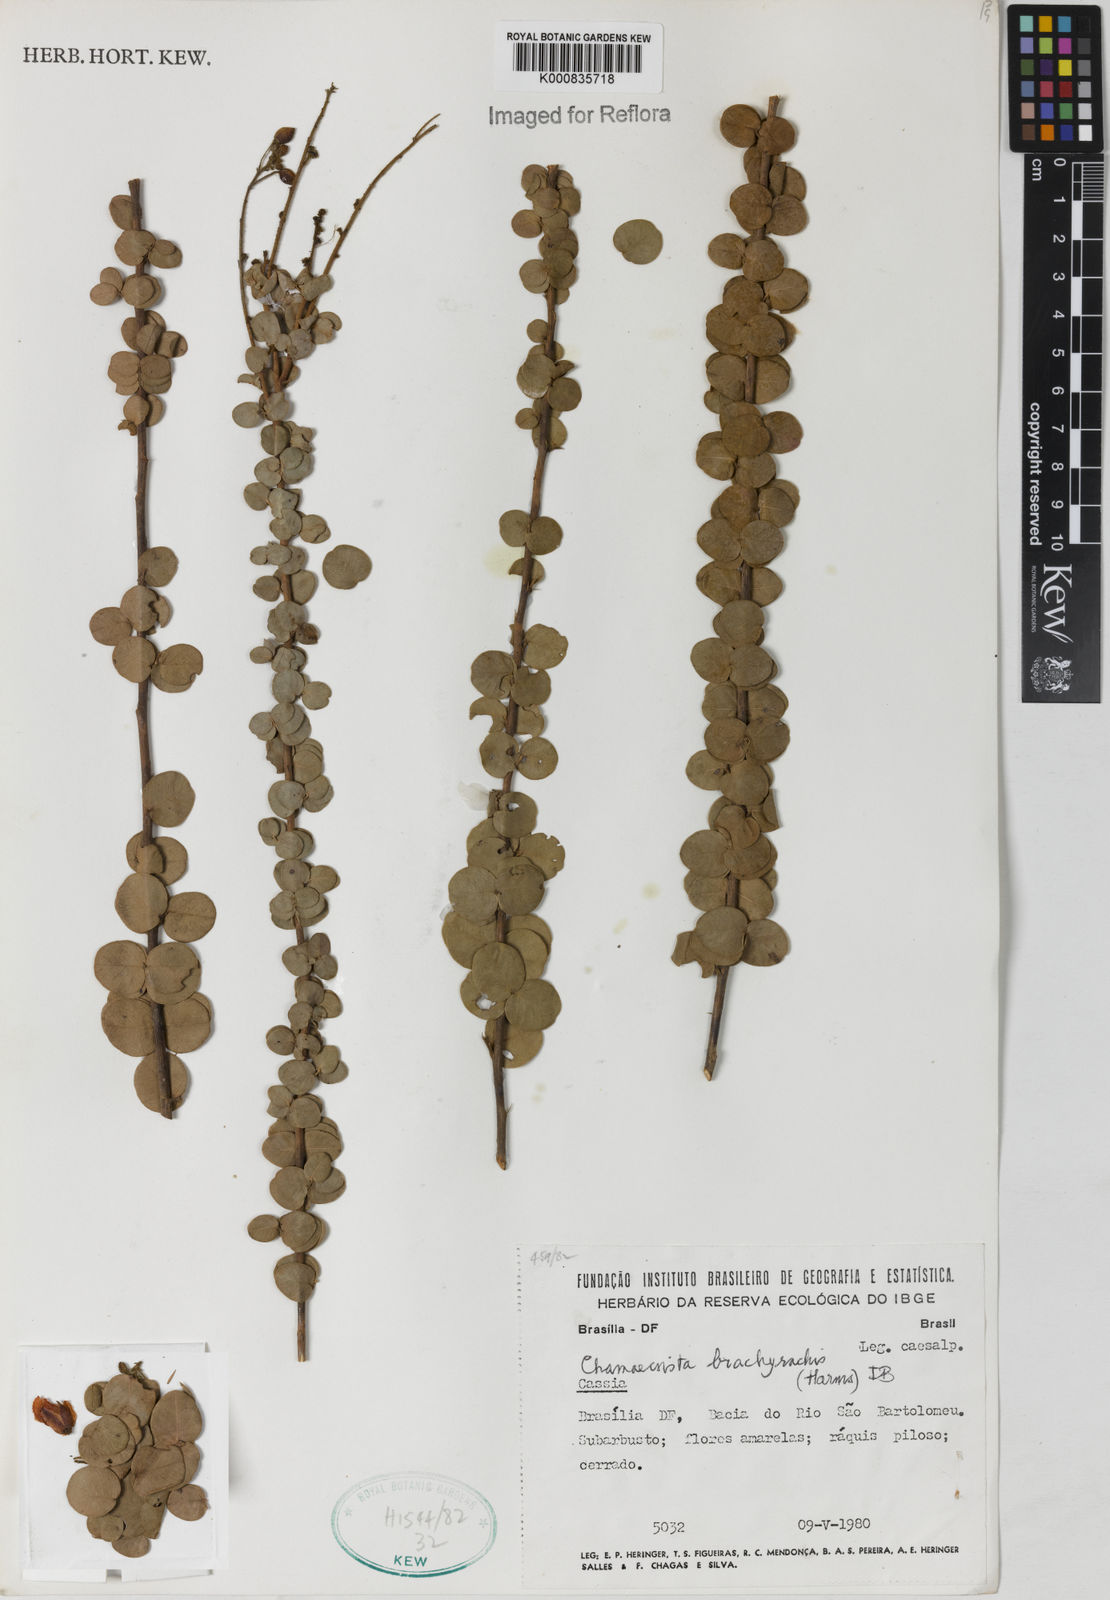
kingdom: Plantae
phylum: Tracheophyta
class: Magnoliopsida
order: Fabales
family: Fabaceae
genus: Chamaecrista
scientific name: Chamaecrista brachyrachis
